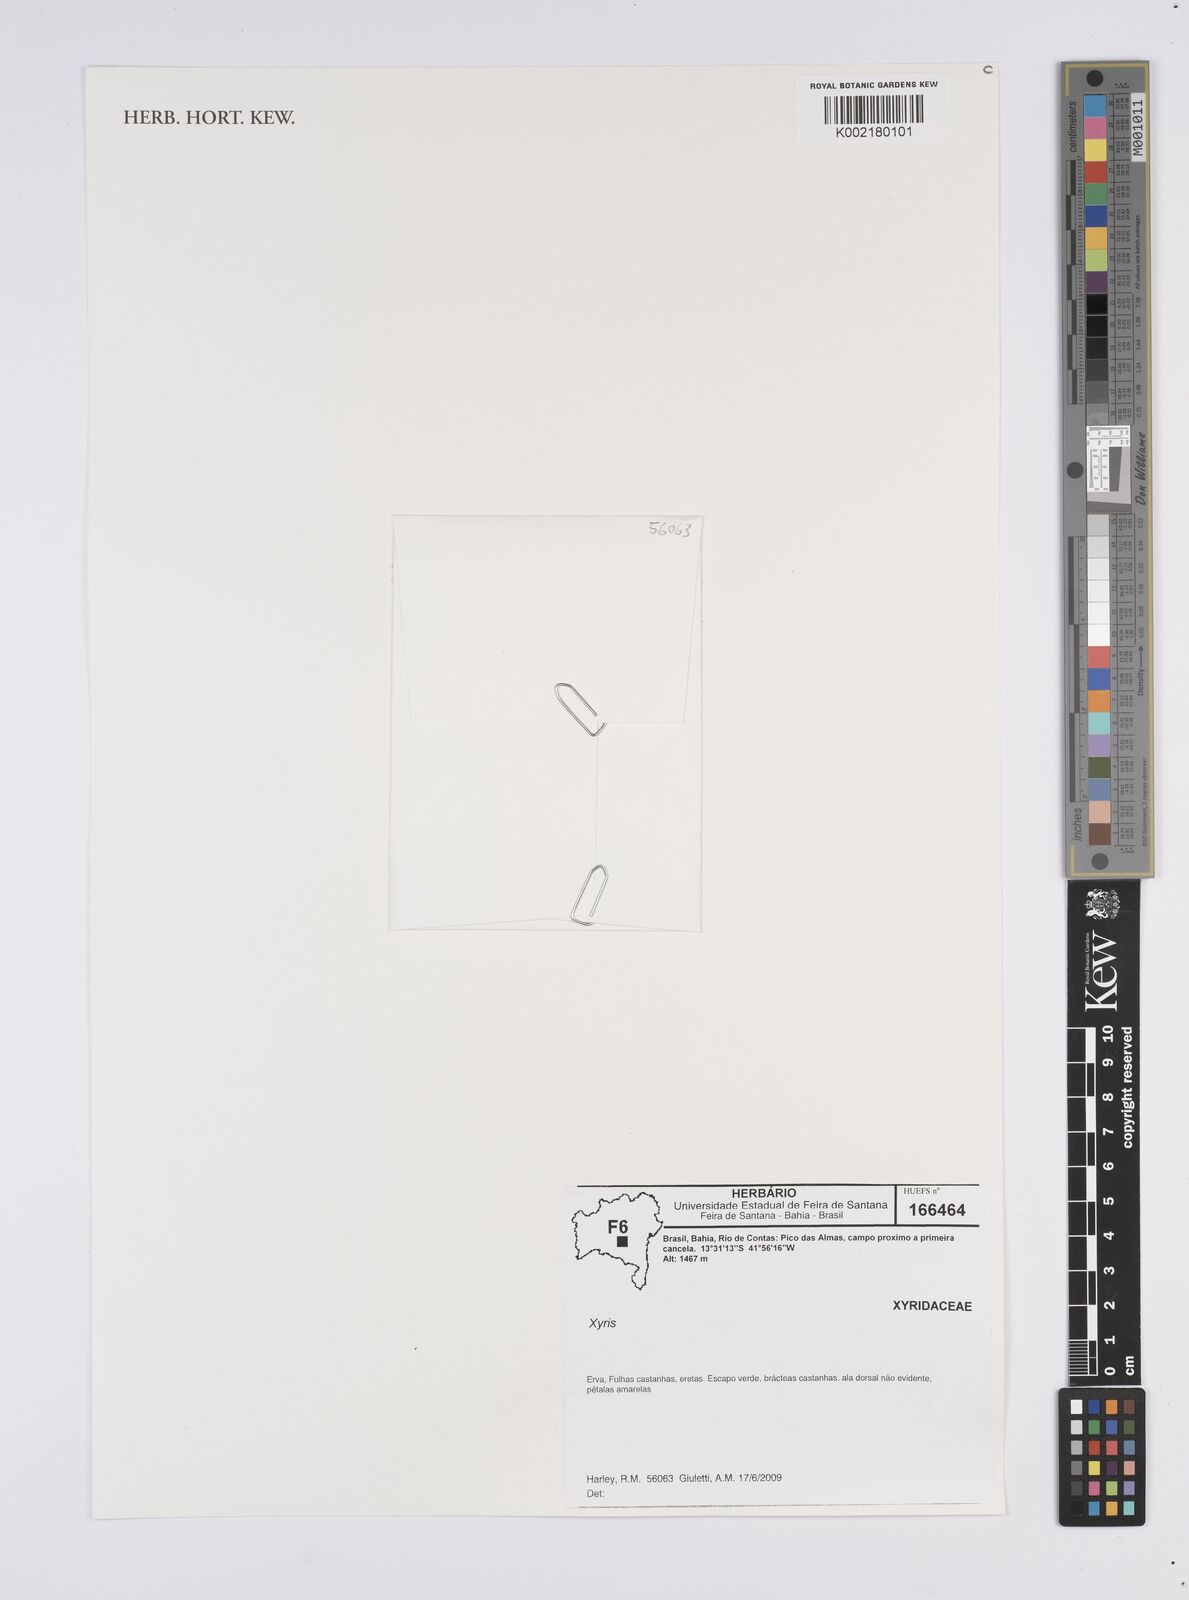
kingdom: Plantae
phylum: Tracheophyta
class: Liliopsida
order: Poales
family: Xyridaceae
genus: Xyris
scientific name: Xyris
